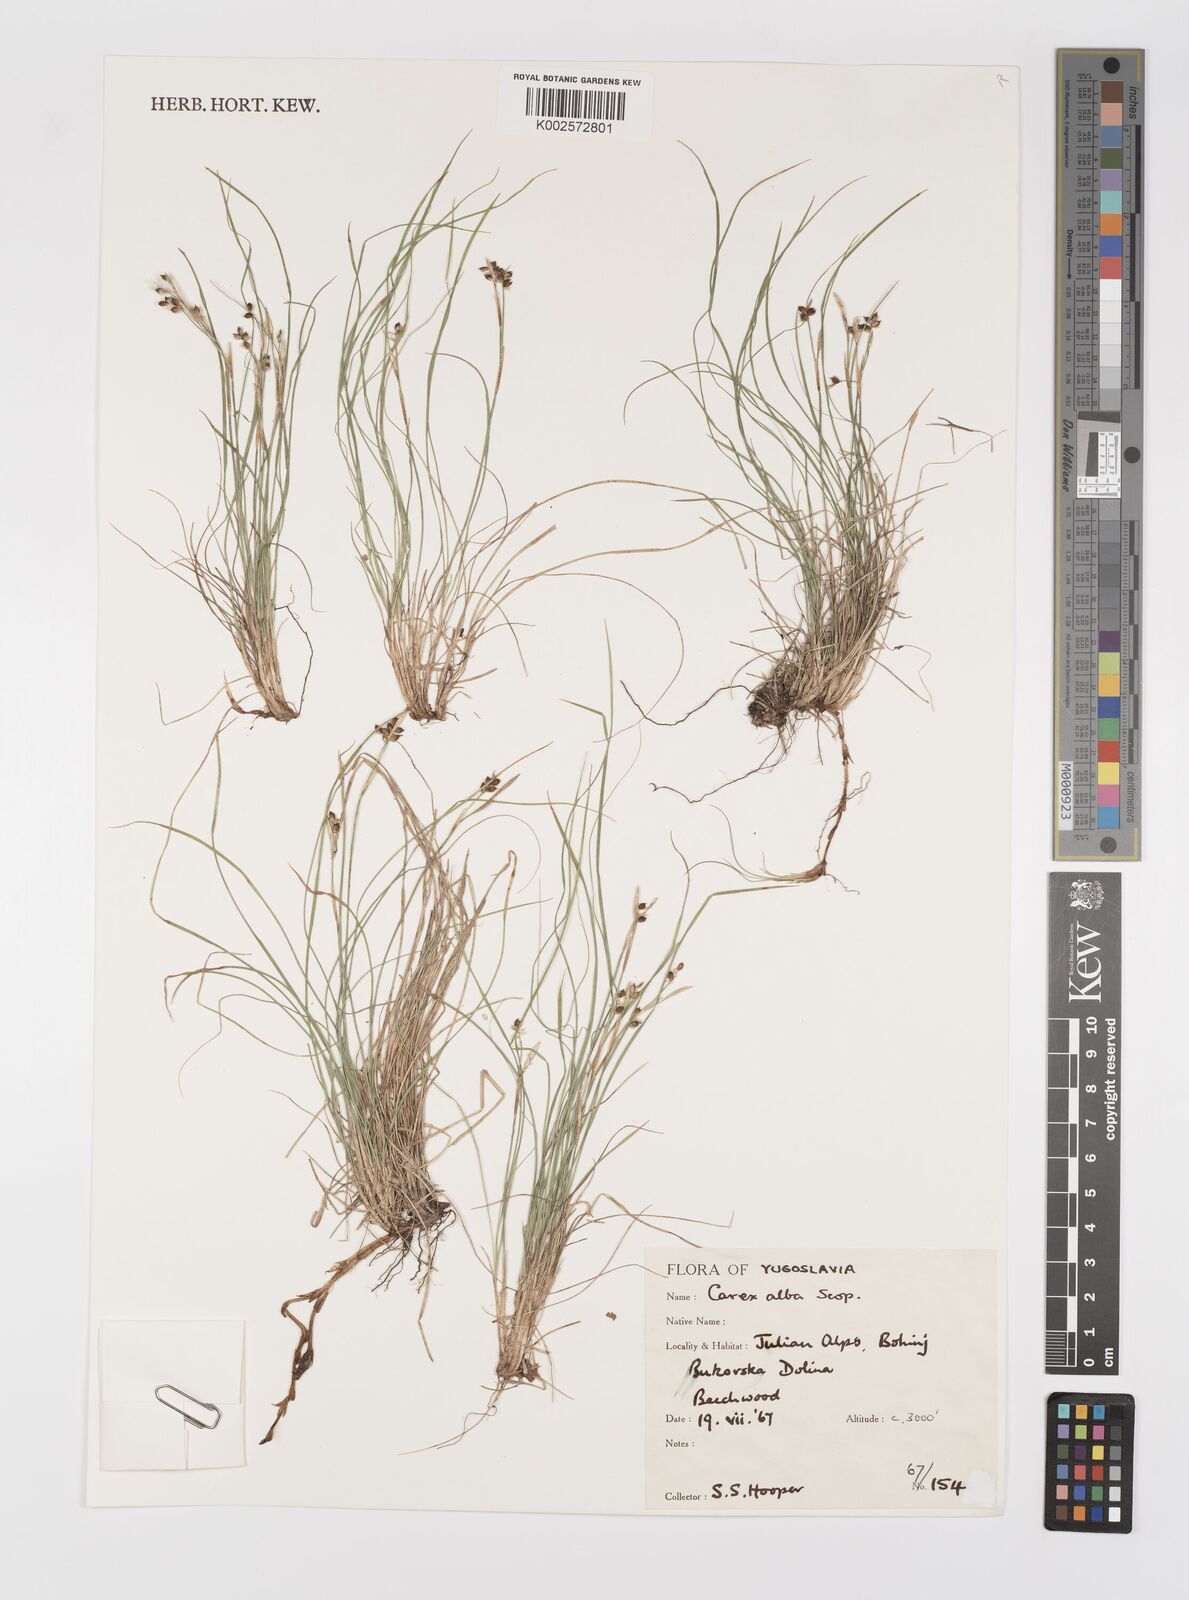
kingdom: Plantae
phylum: Tracheophyta
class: Liliopsida
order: Poales
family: Cyperaceae
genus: Carex
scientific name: Carex alba
